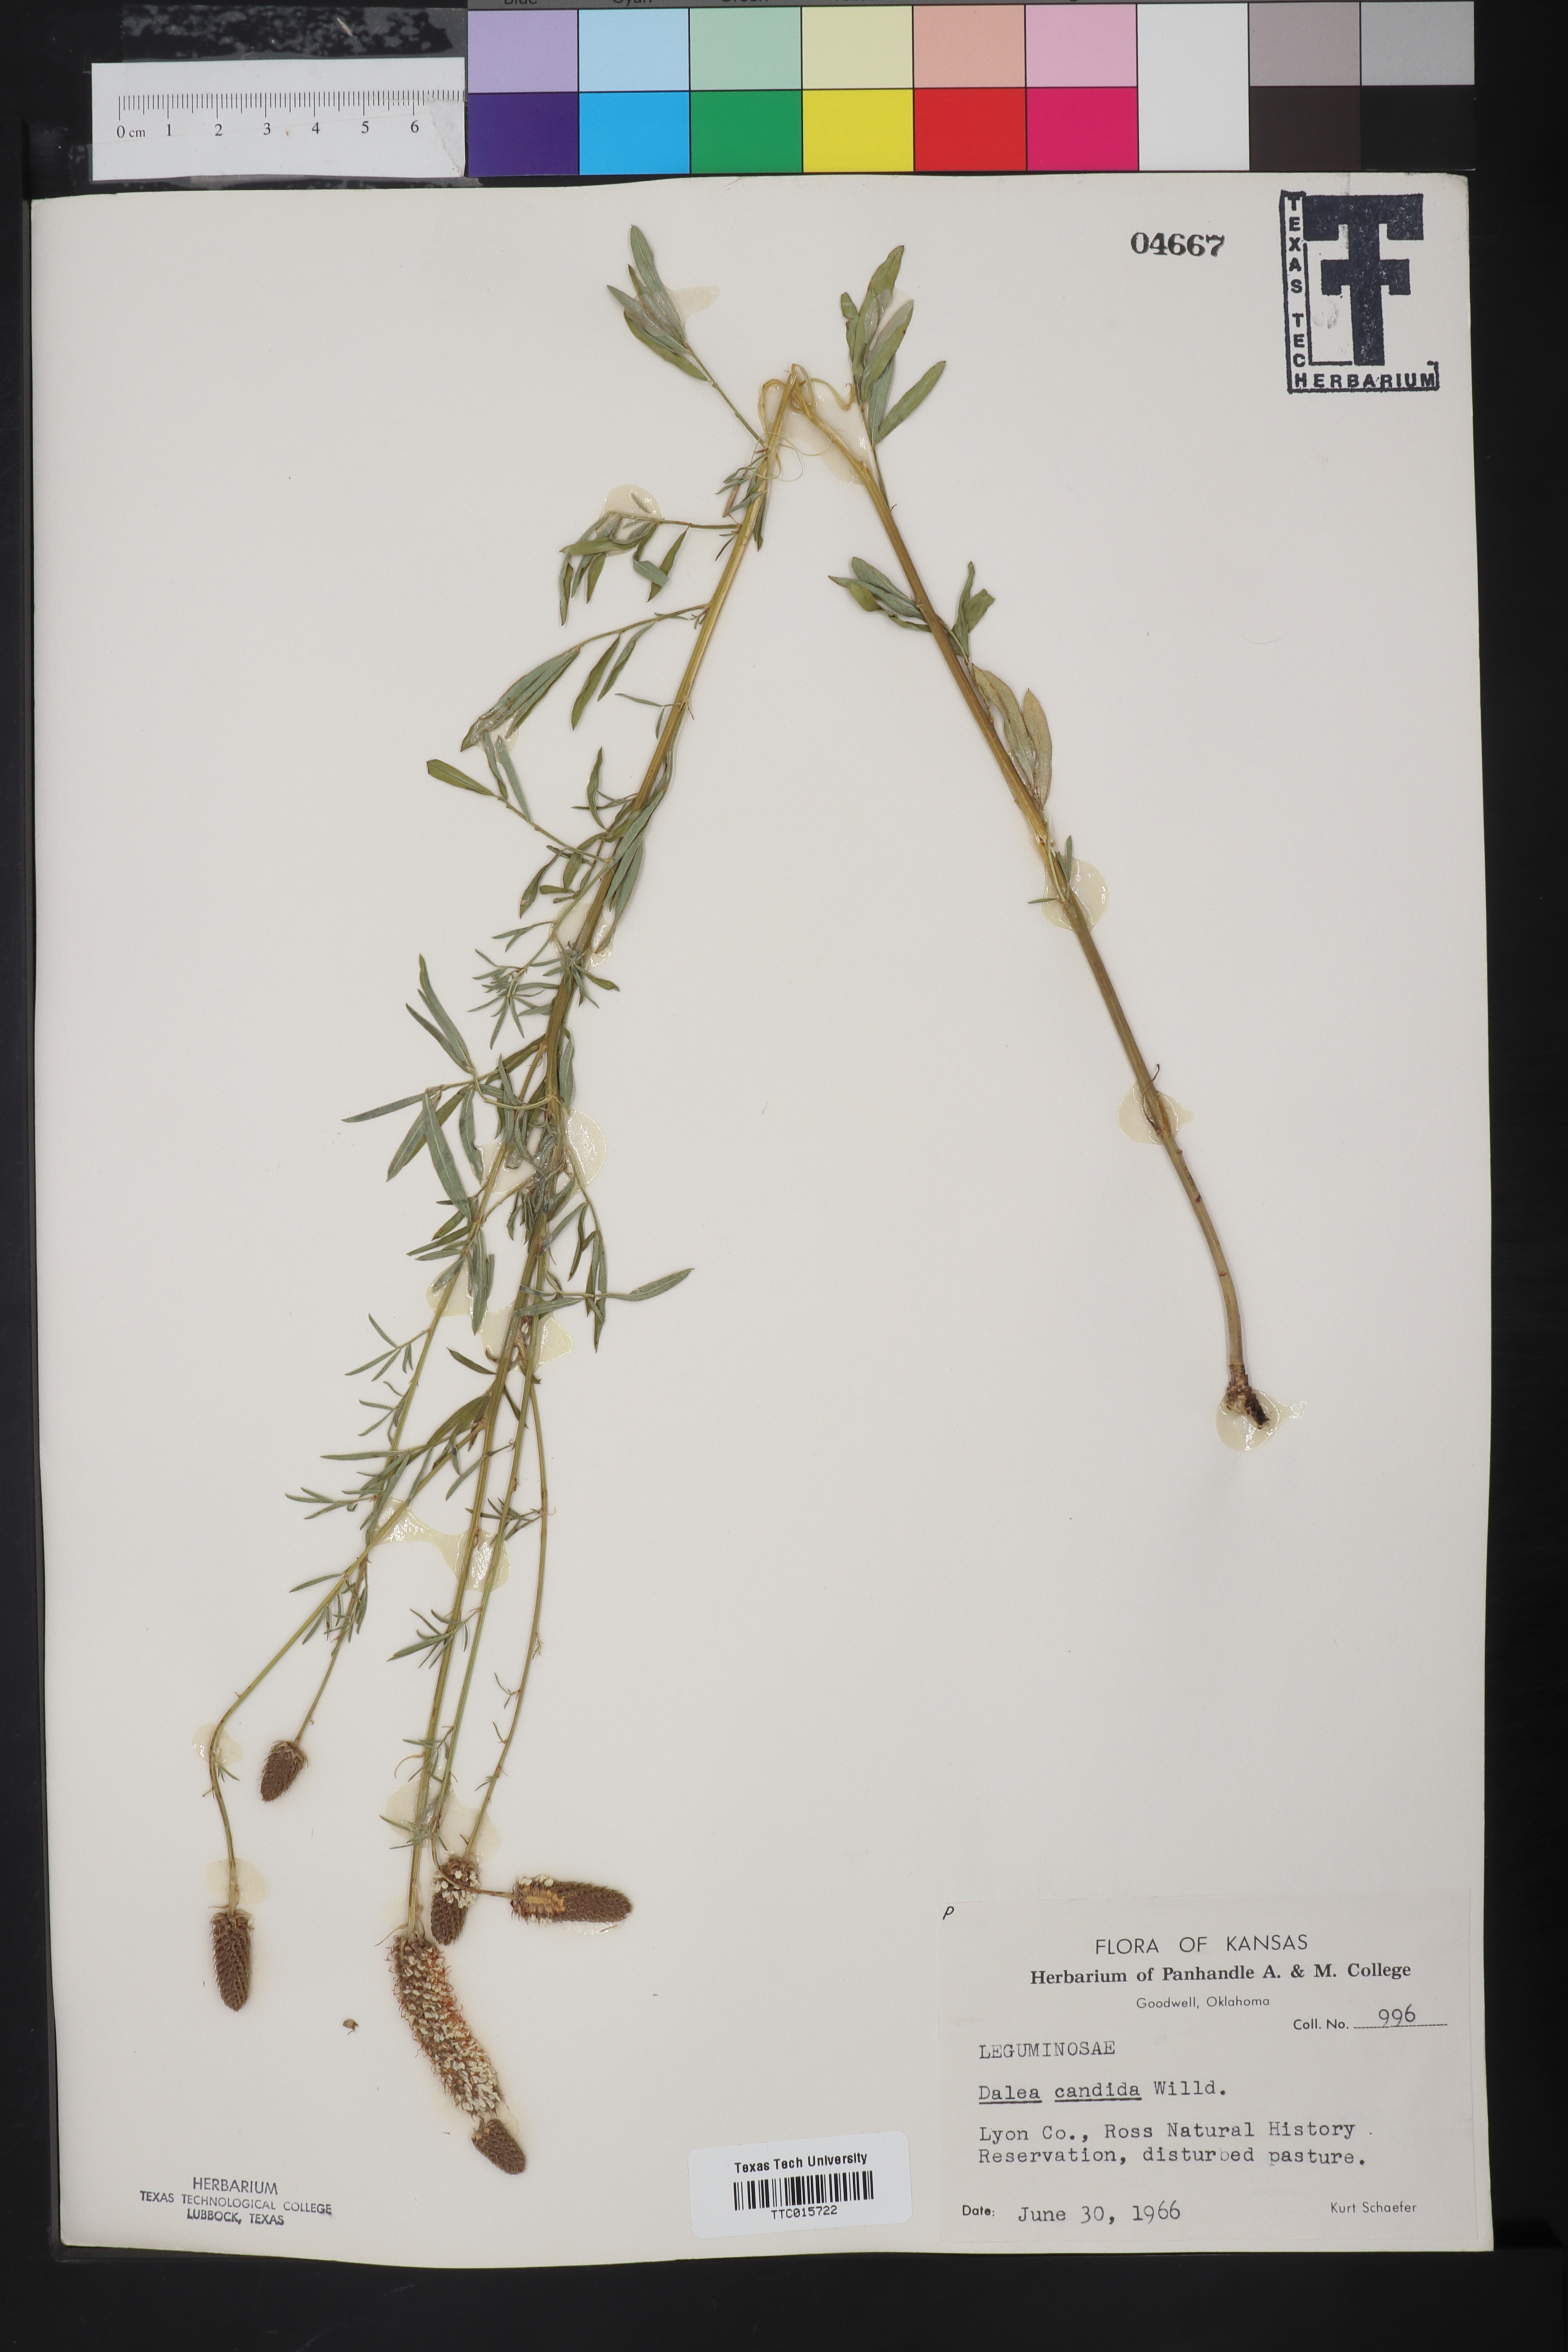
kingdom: Plantae
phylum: Tracheophyta
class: Magnoliopsida
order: Fabales
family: Fabaceae
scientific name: Fabaceae
